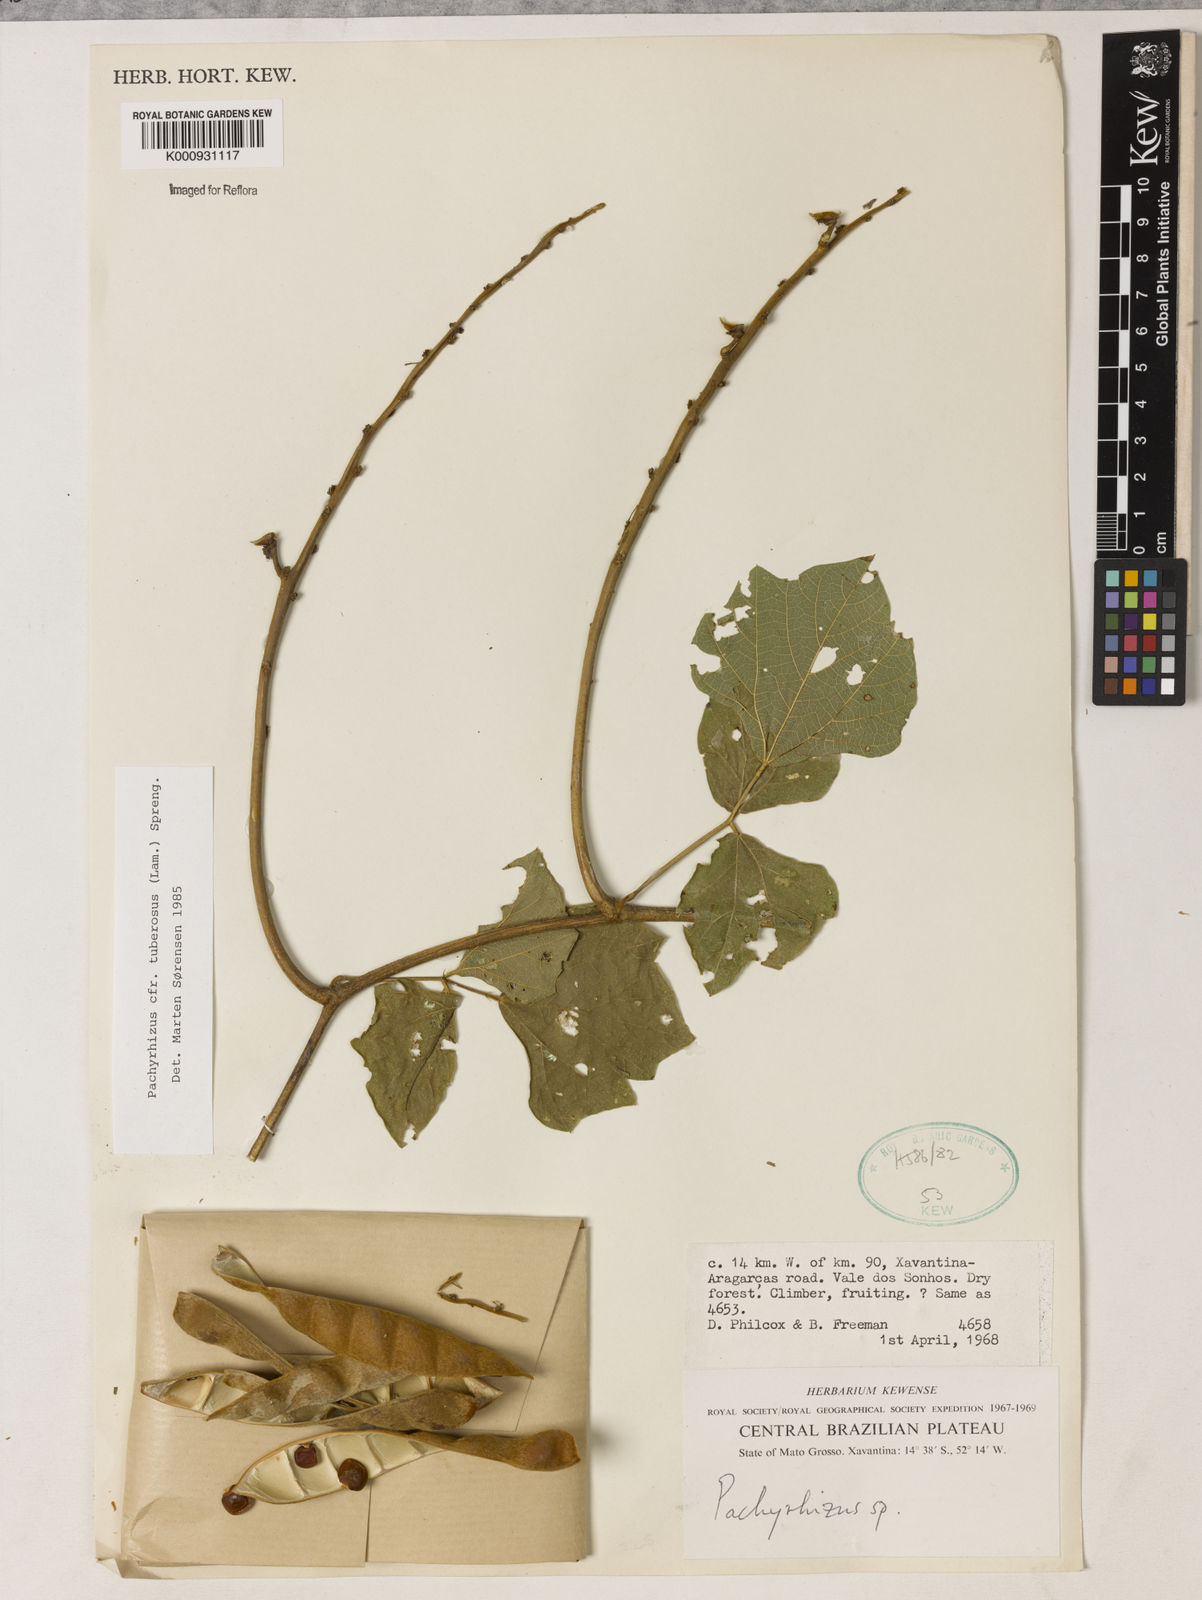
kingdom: Plantae
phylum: Tracheophyta
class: Magnoliopsida
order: Fabales
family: Fabaceae
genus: Pachyrhizus
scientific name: Pachyrhizus tuberosus
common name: Yam-bean
